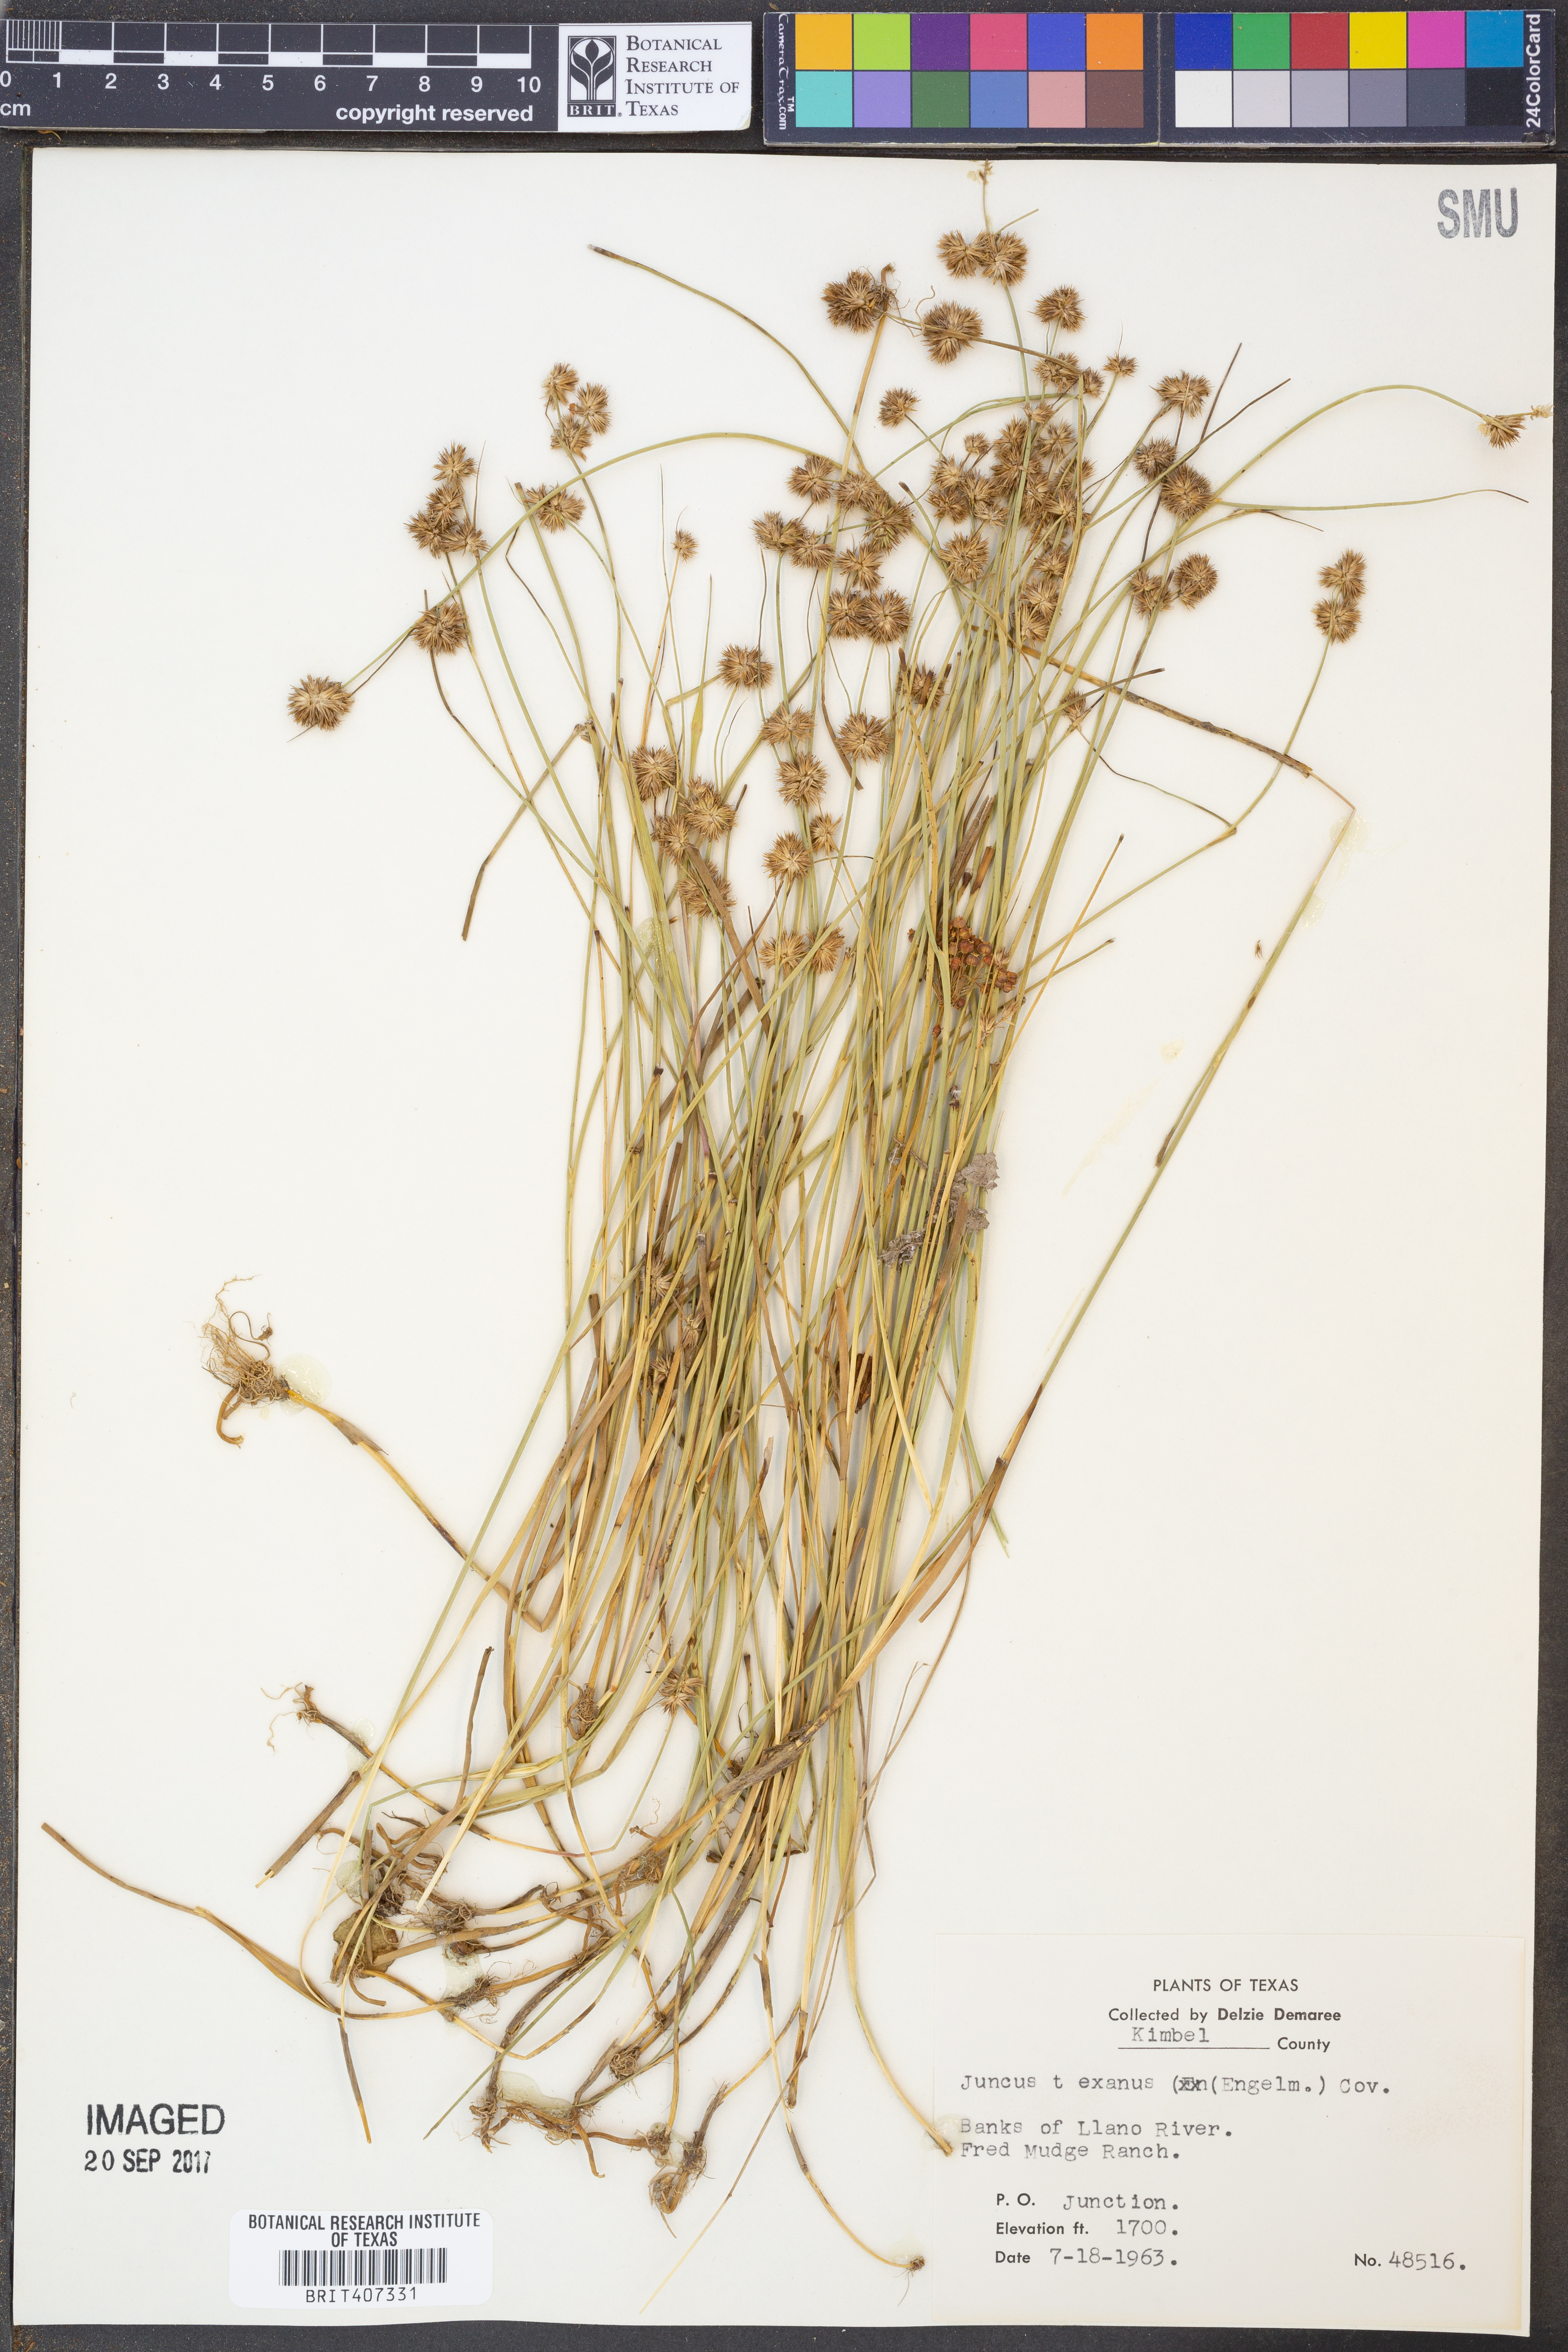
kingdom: Plantae
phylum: Tracheophyta
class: Liliopsida
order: Poales
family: Juncaceae
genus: Juncus
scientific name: Juncus texanus
